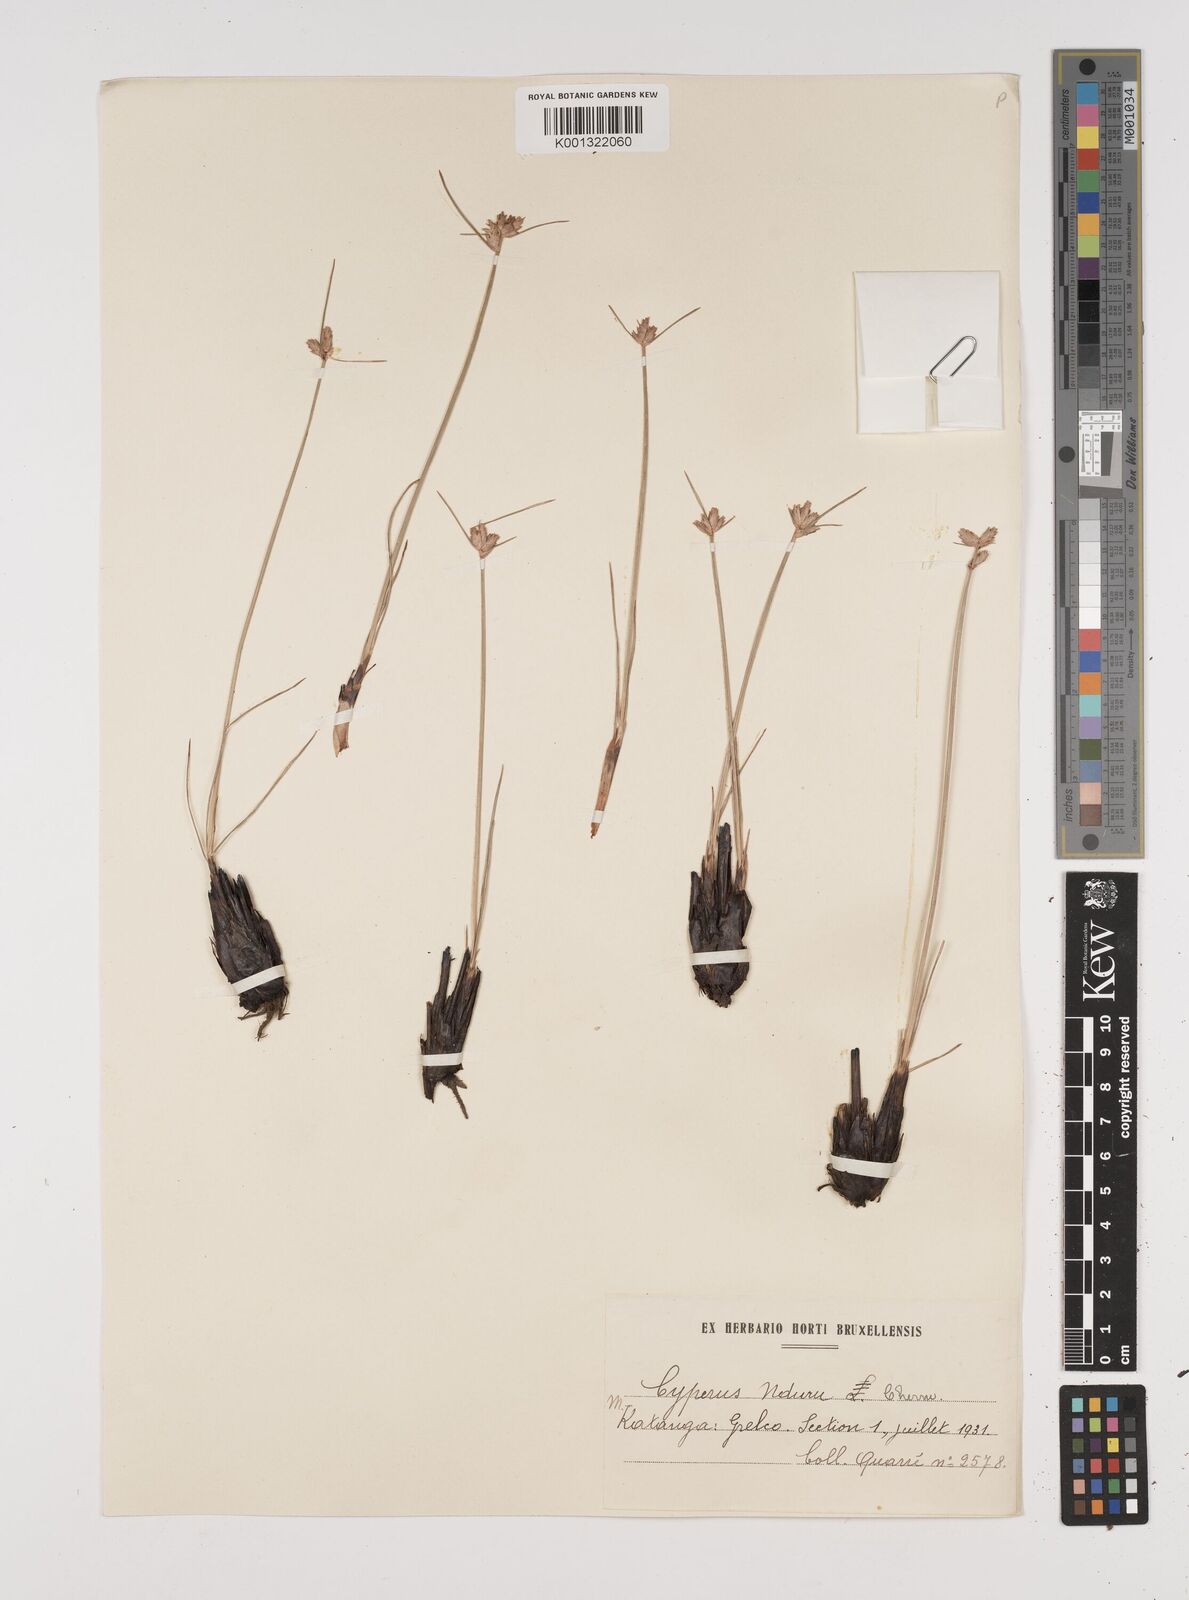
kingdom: Plantae
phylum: Tracheophyta
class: Liliopsida
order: Poales
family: Cyperaceae
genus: Cyperus
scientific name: Cyperus nduru
